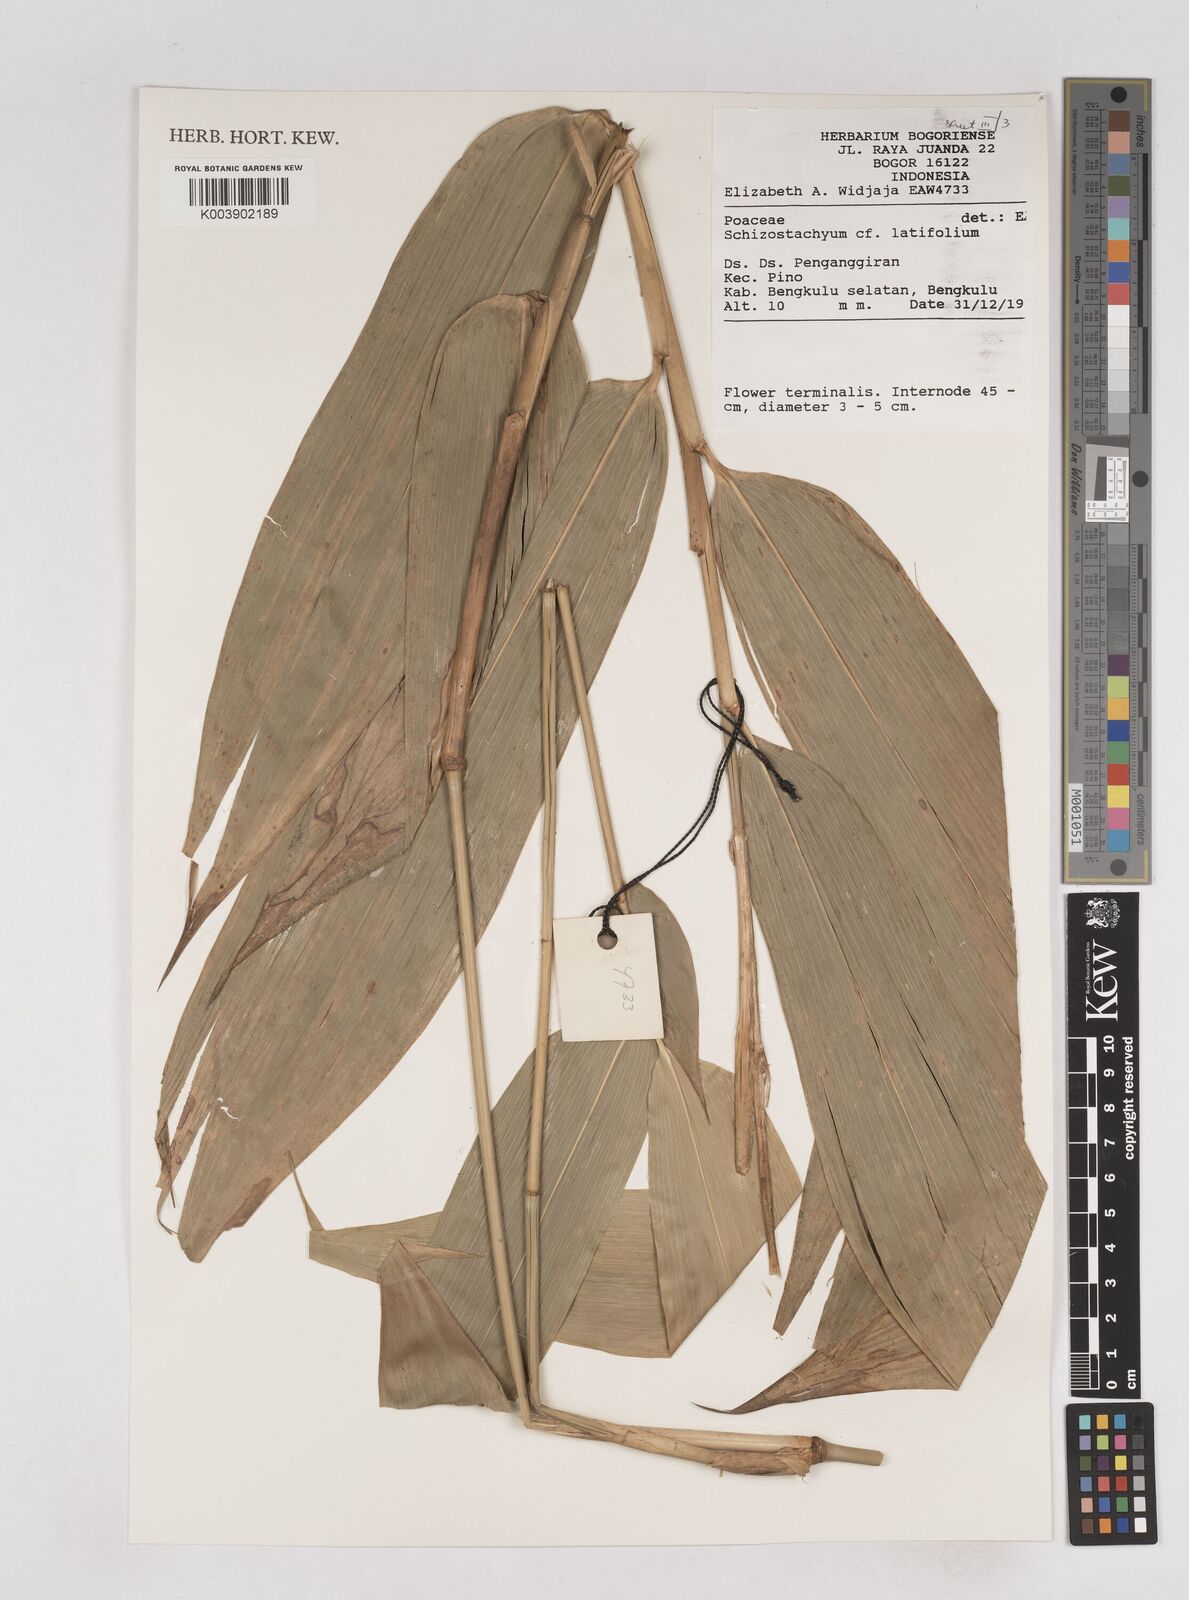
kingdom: Plantae
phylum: Tracheophyta
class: Liliopsida
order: Poales
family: Poaceae
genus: Schizostachyum
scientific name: Schizostachyum latifolium
